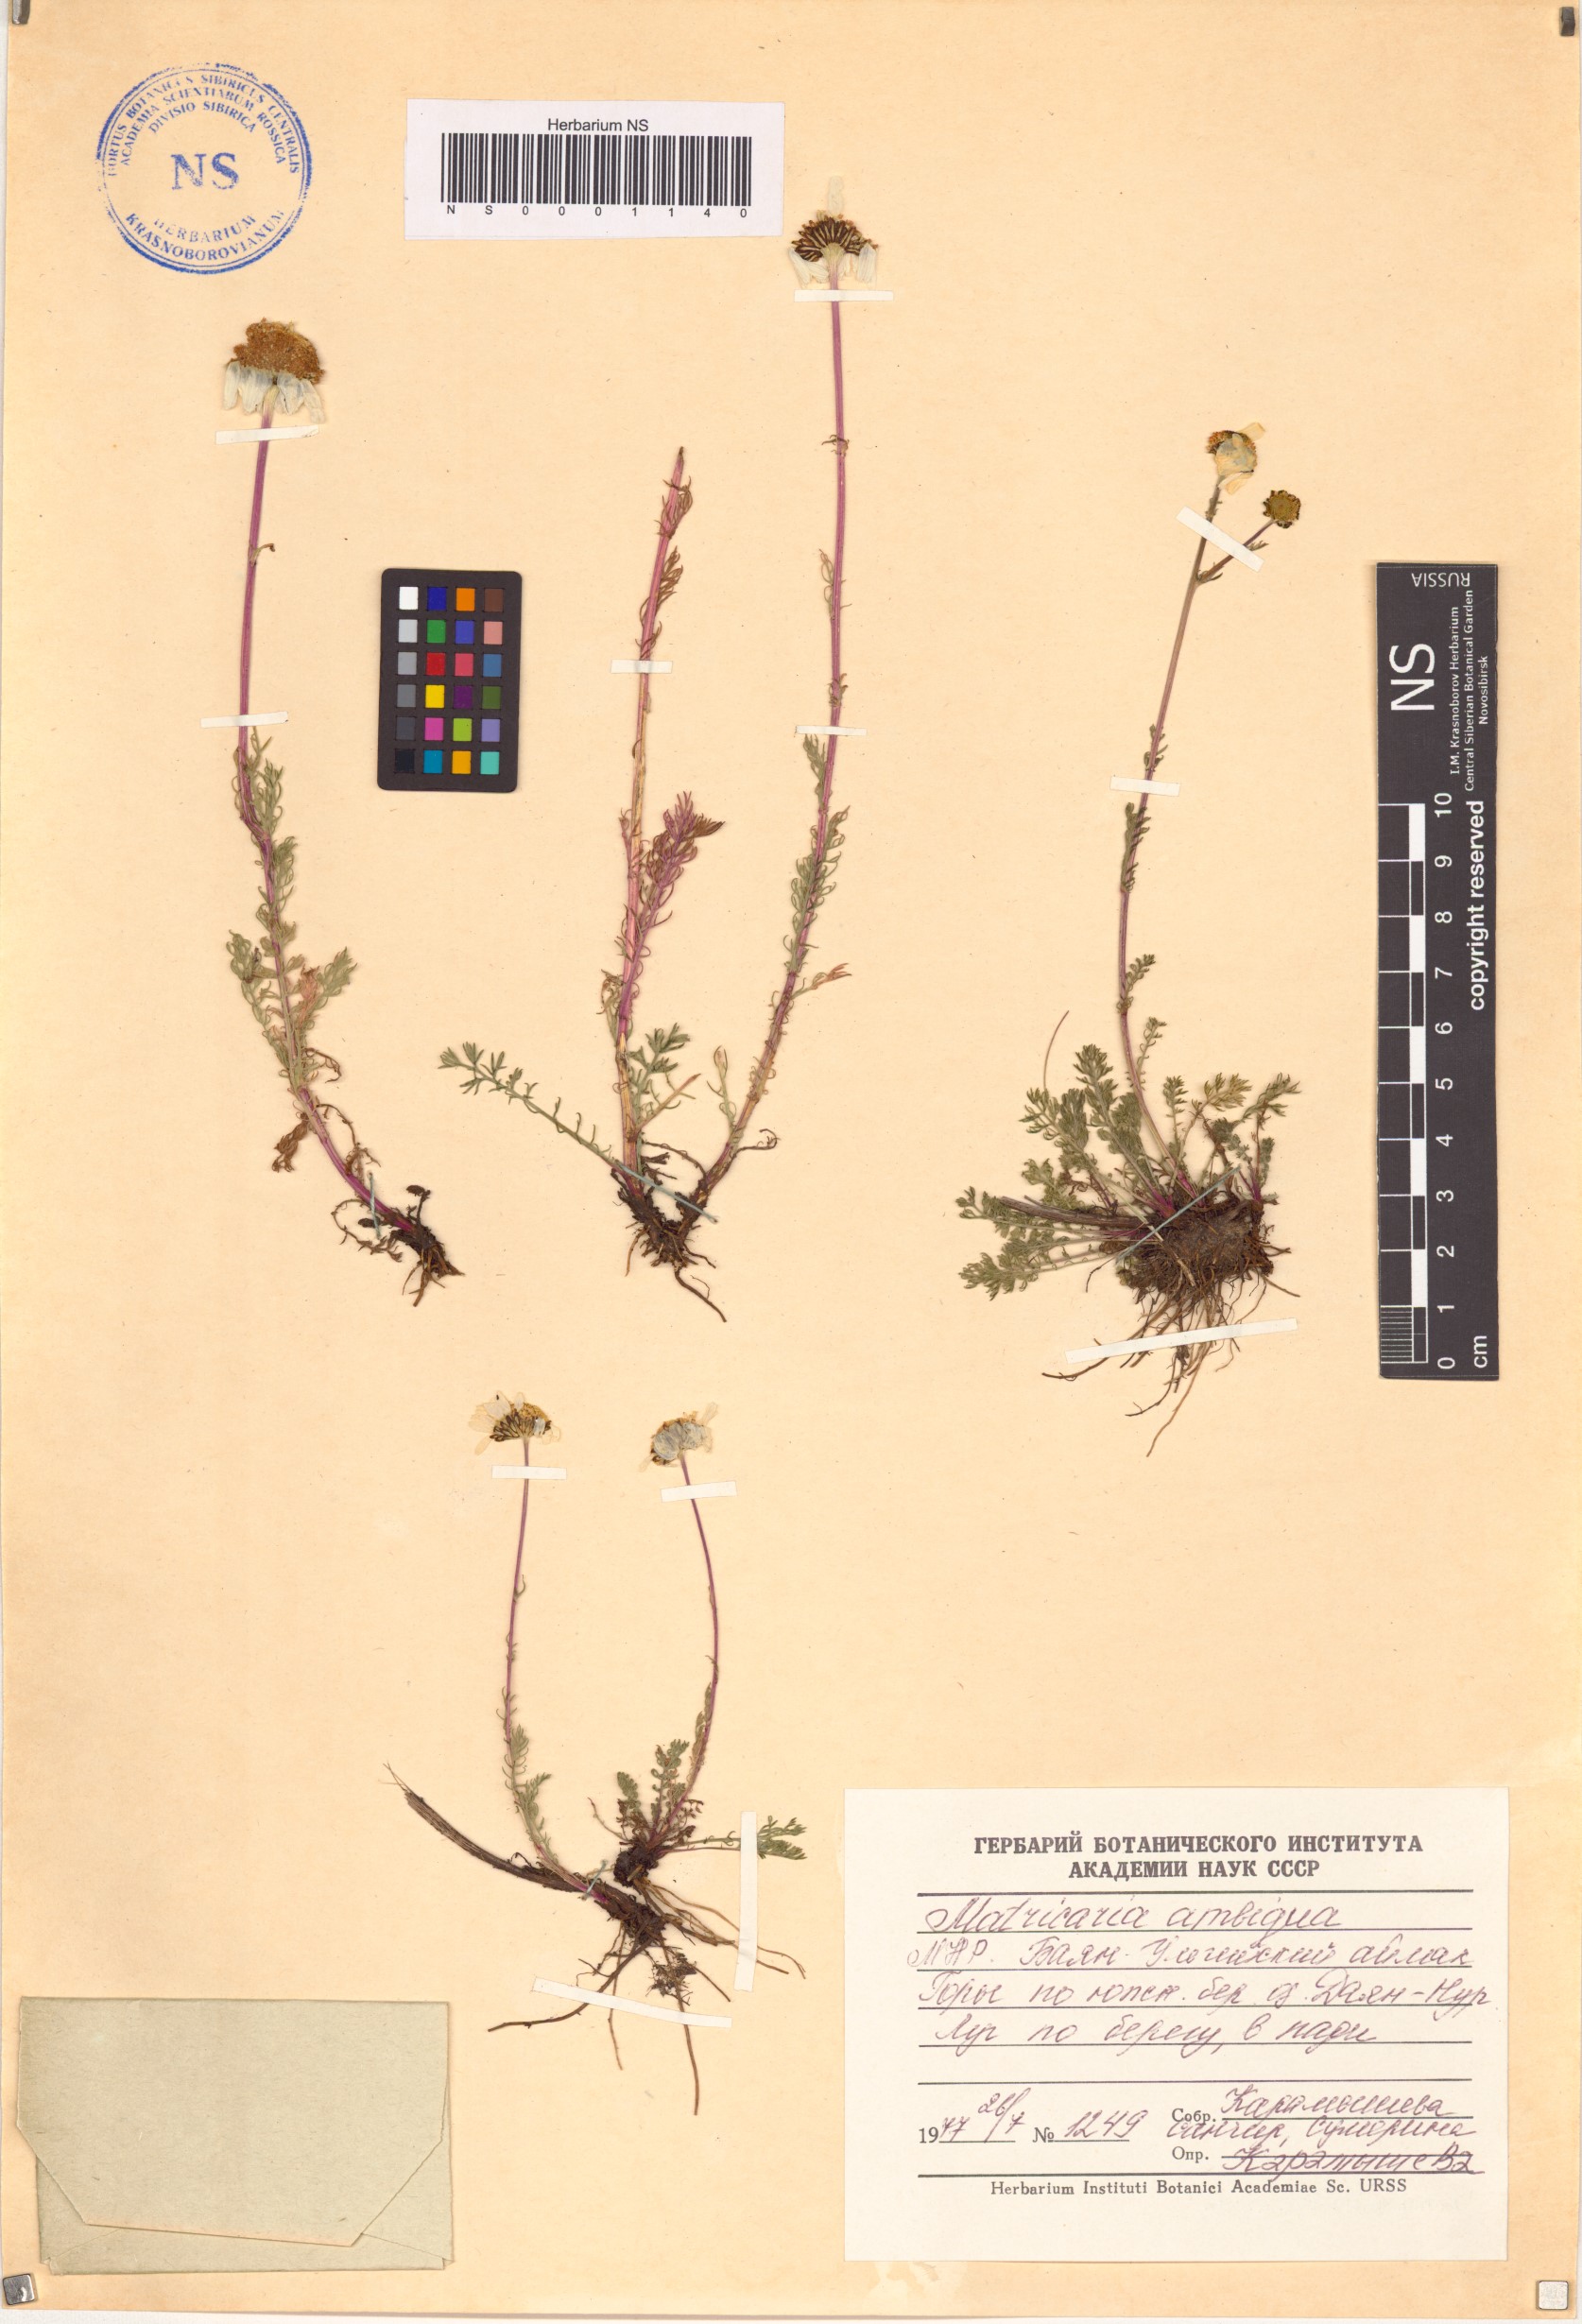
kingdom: Plantae
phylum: Tracheophyta
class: Magnoliopsida
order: Asterales
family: Asteraceae
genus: Tripleurospermum
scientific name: Tripleurospermum ambiguum
